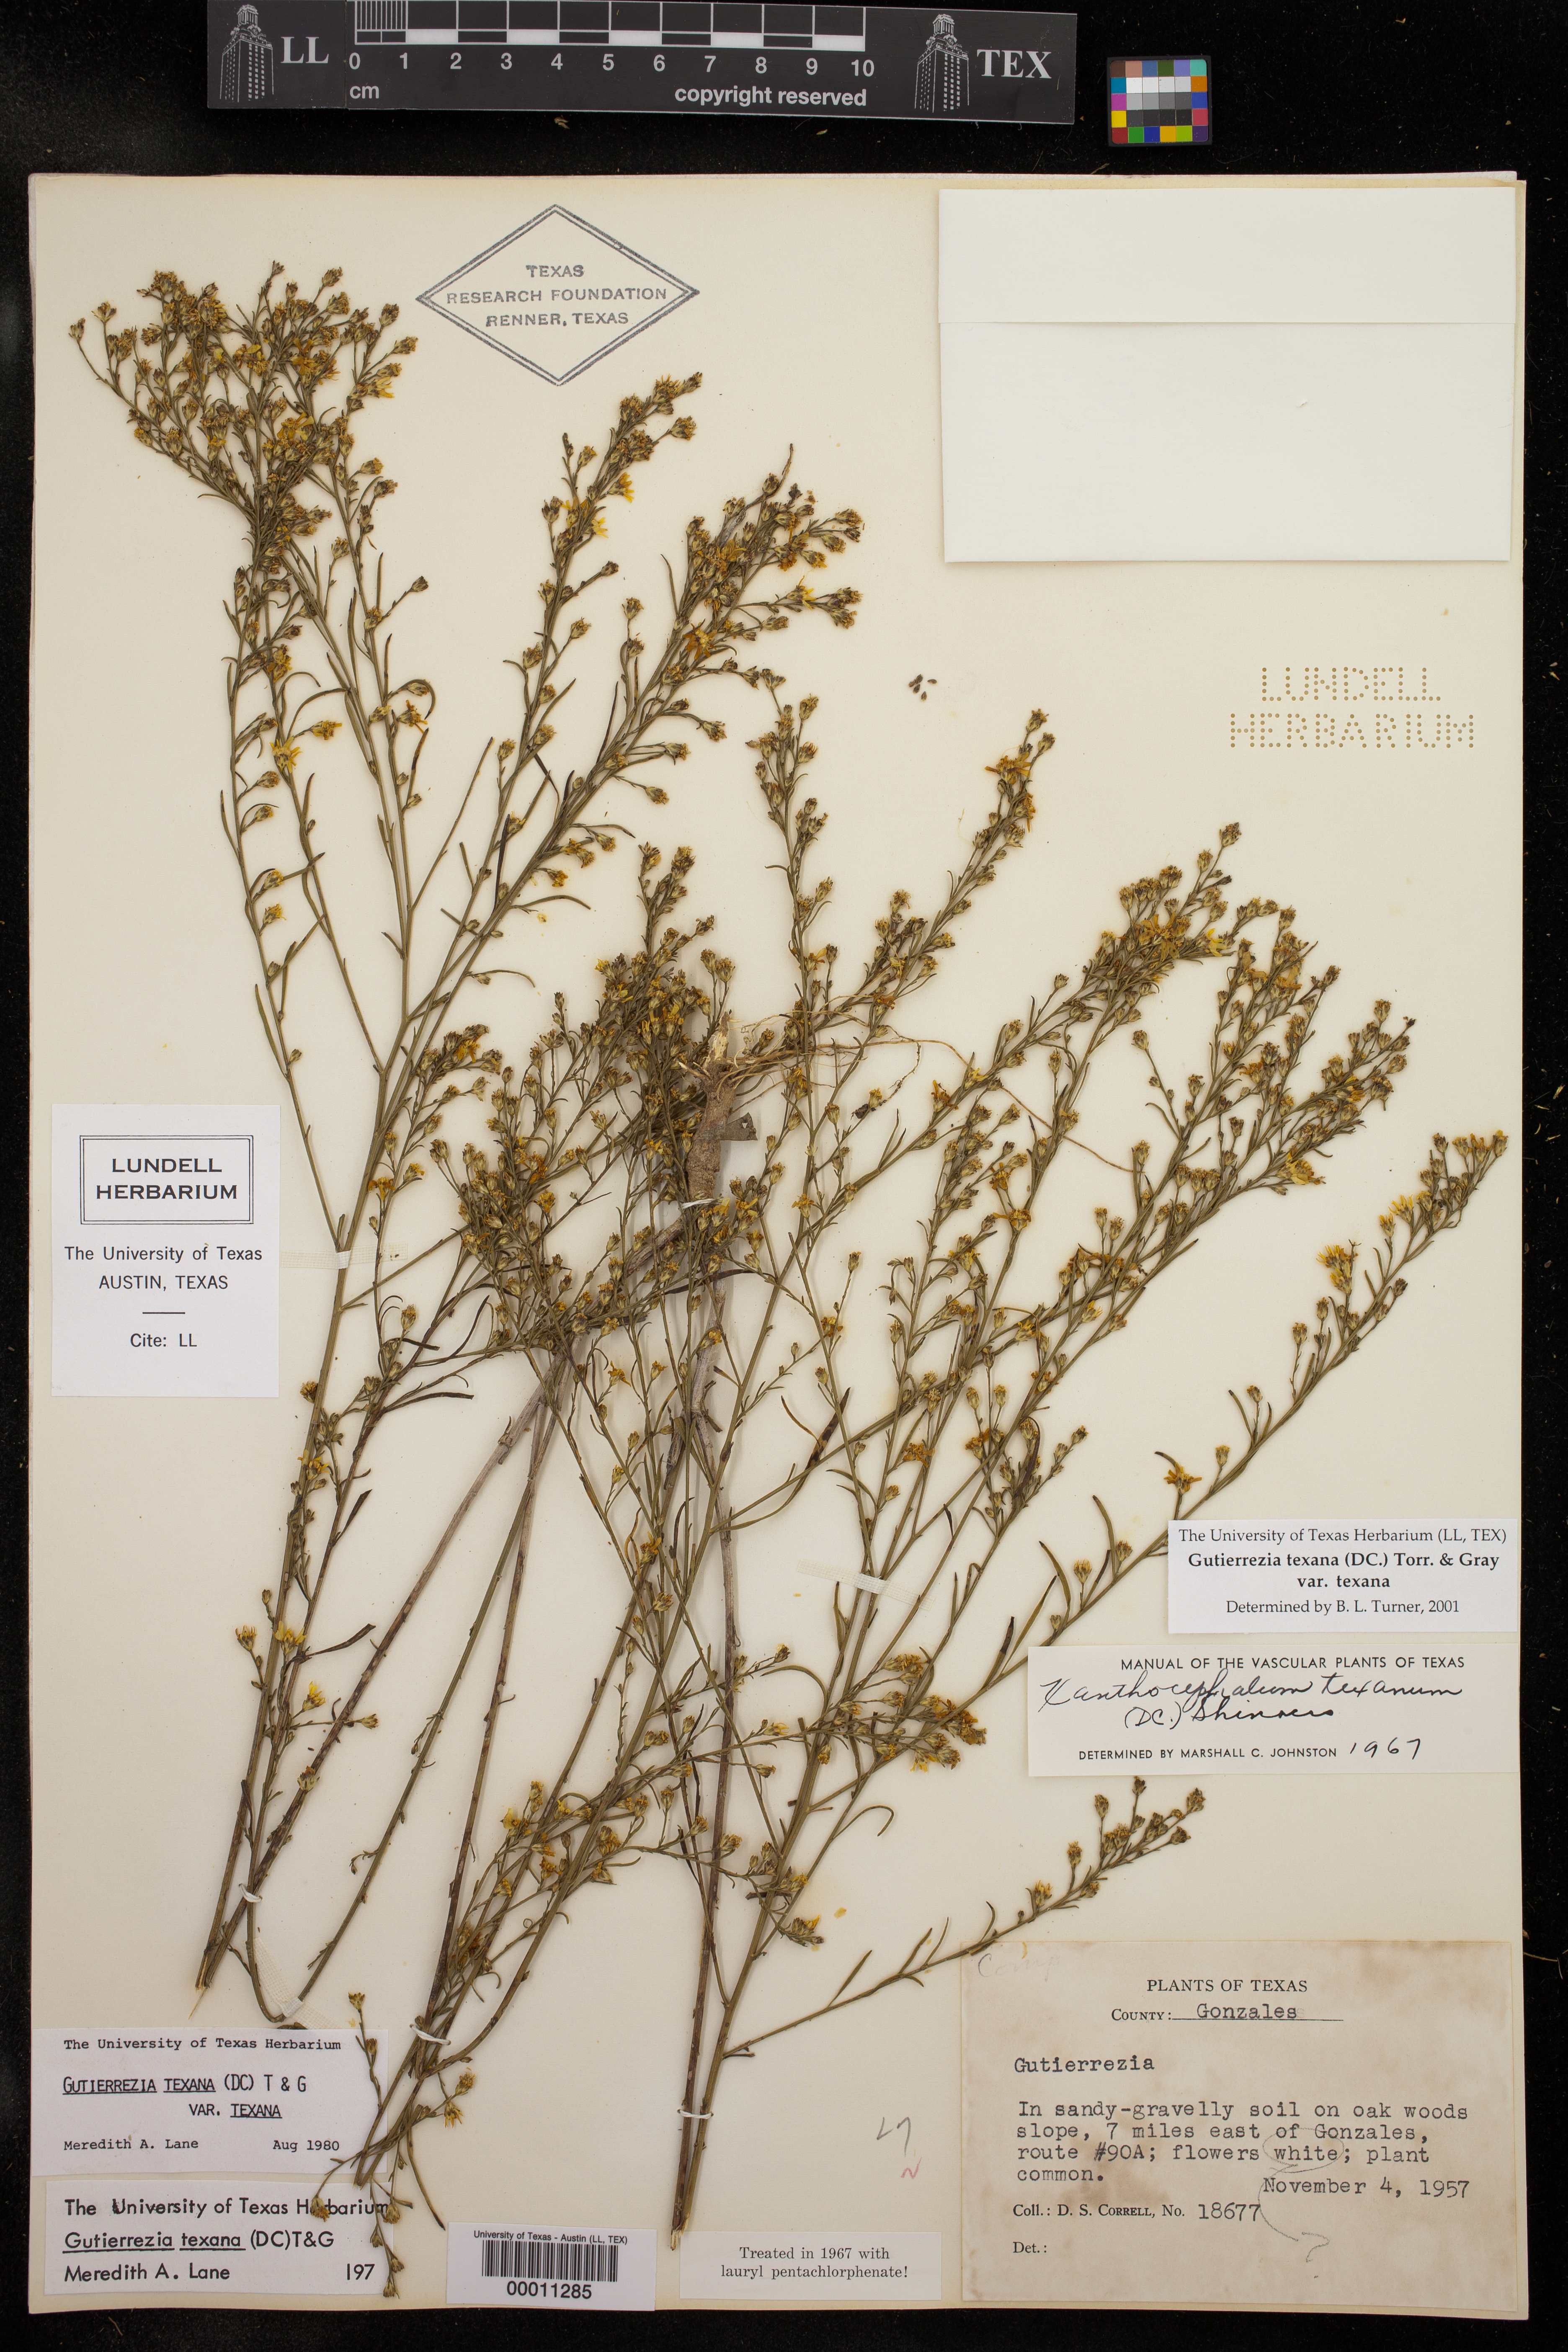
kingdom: Plantae
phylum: Tracheophyta
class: Magnoliopsida
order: Asterales
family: Asteraceae
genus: Gutierrezia
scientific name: Gutierrezia texana
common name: Texas snakeweed
